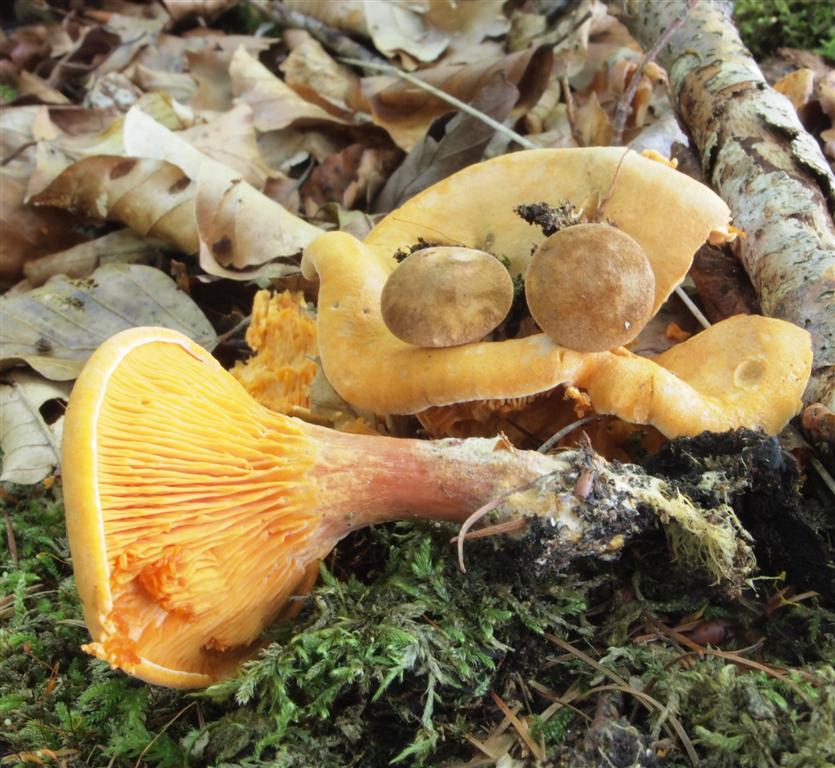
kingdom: Fungi
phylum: Basidiomycota
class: Agaricomycetes
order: Boletales
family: Hygrophoropsidaceae
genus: Hygrophoropsis
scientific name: Hygrophoropsis rufa
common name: brunfiltet orangekantarel
